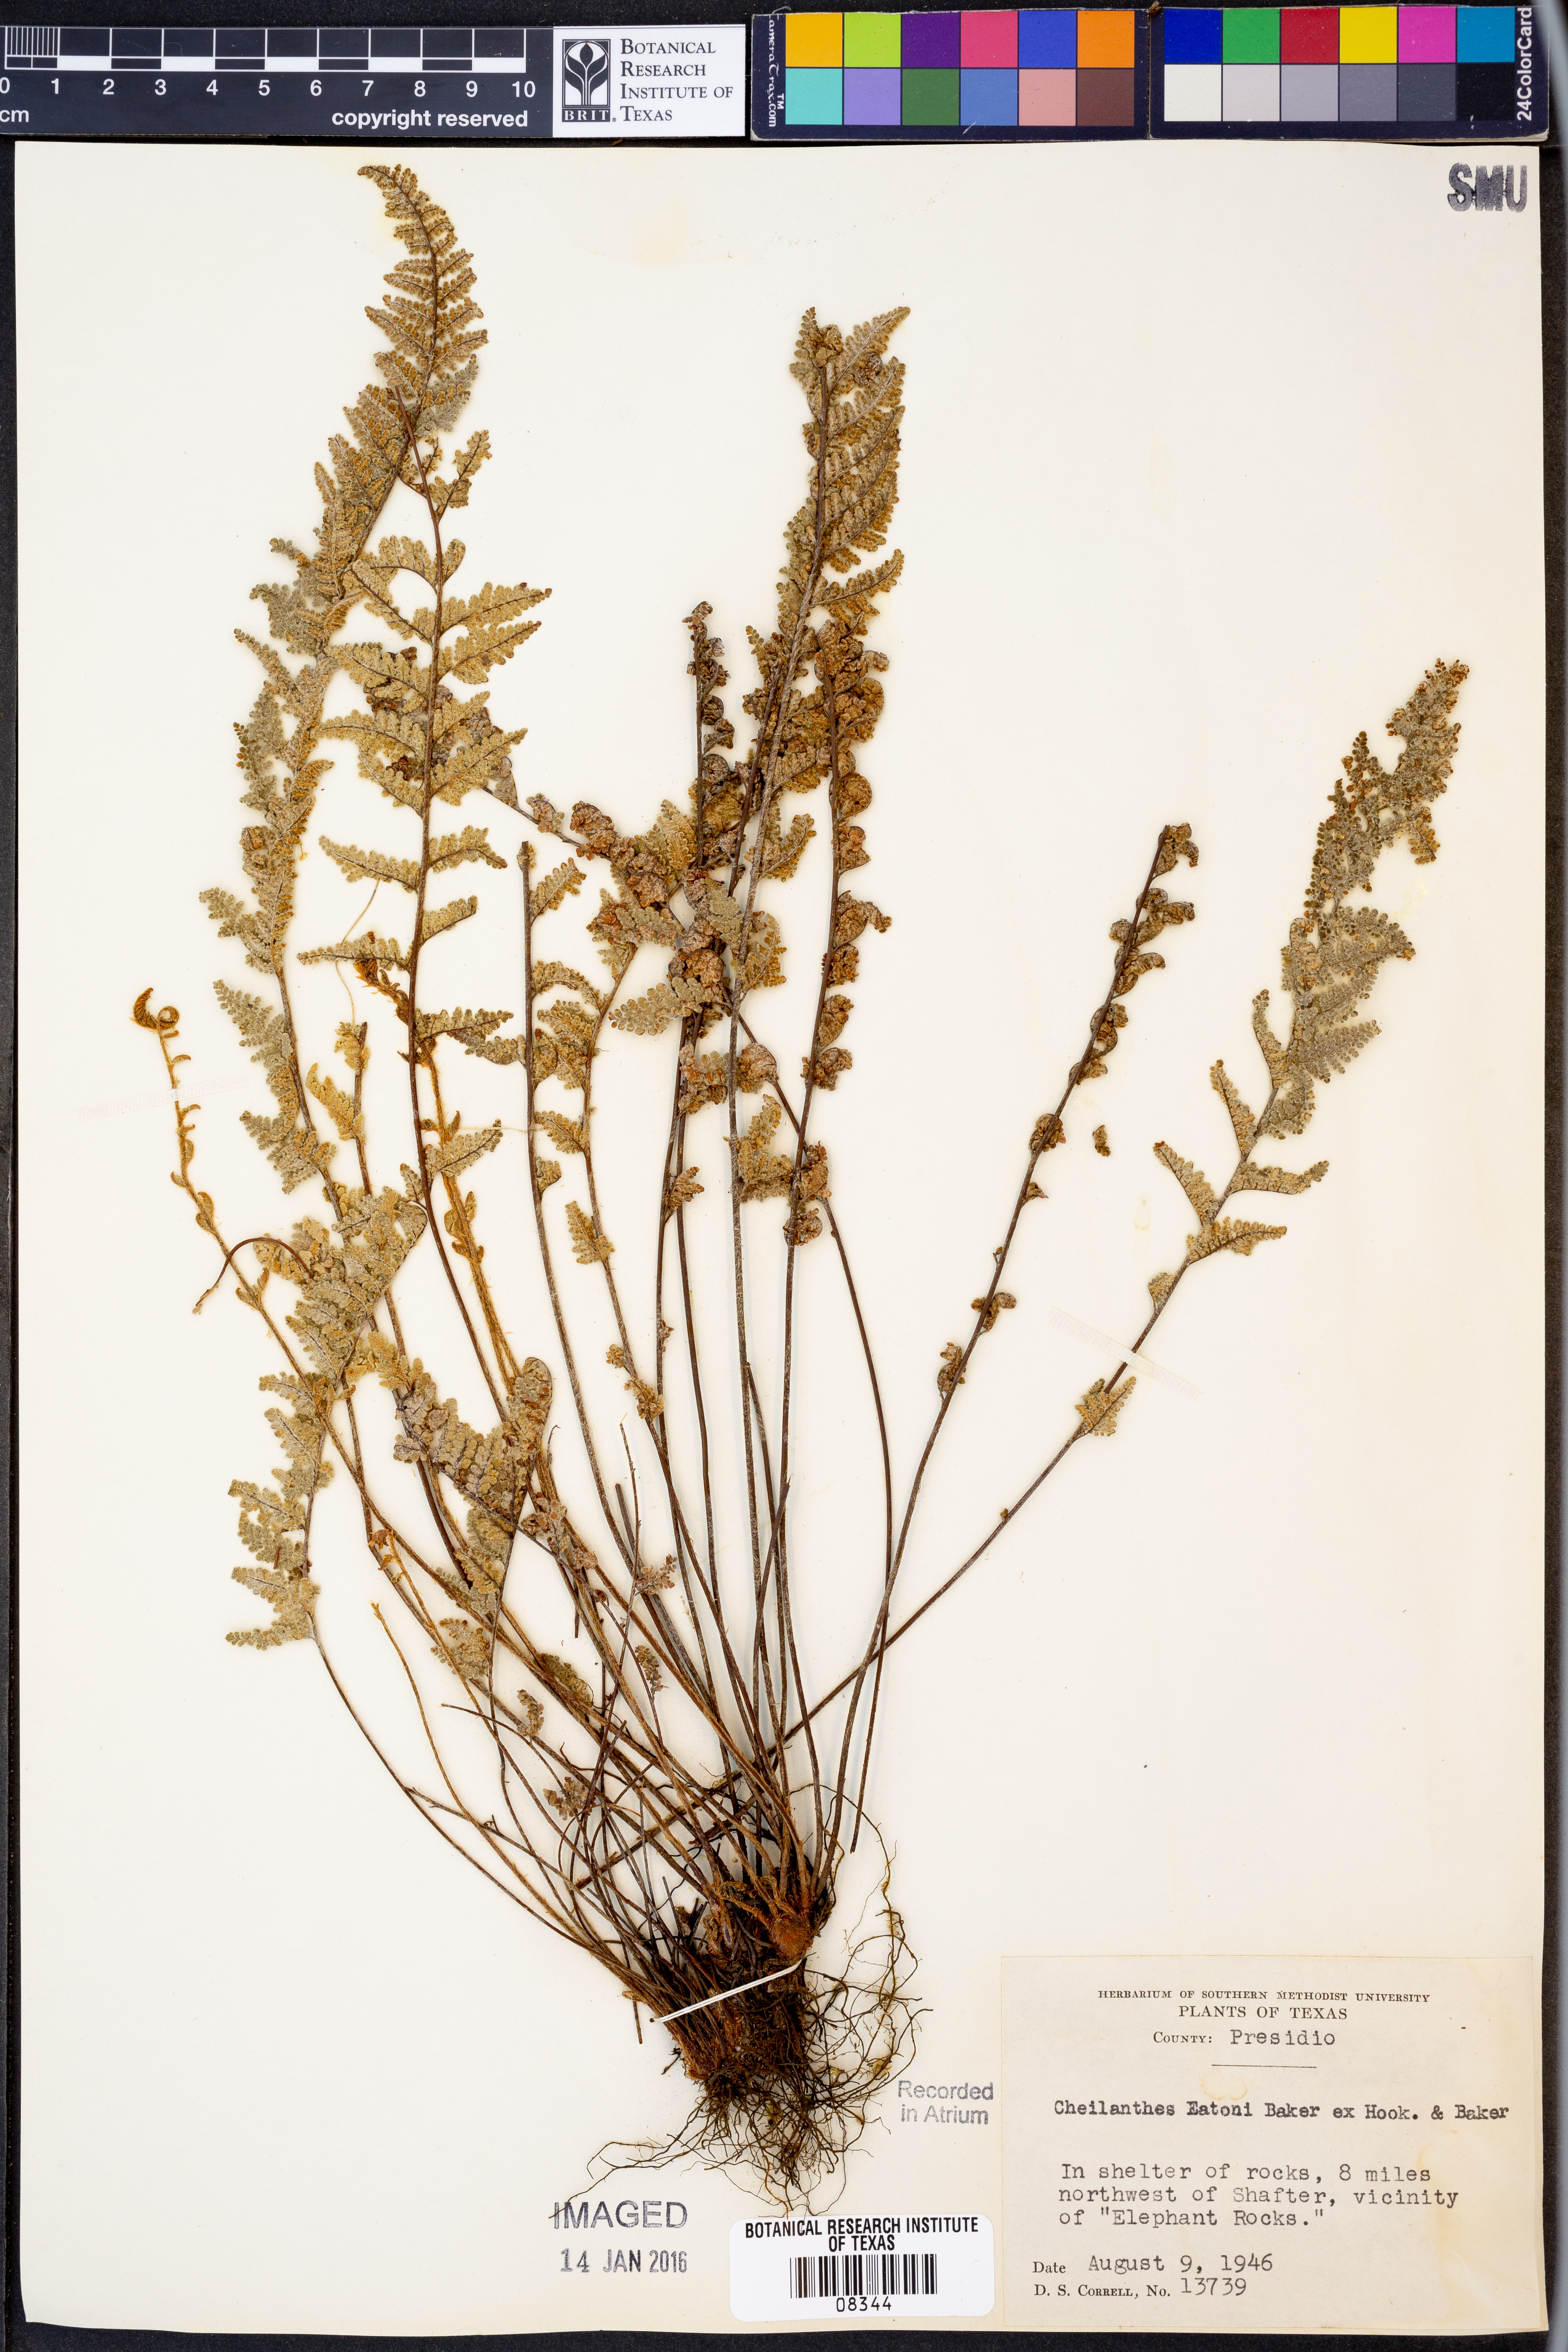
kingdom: Plantae
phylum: Tracheophyta
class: Polypodiopsida
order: Polypodiales
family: Pteridaceae
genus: Myriopteris
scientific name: Myriopteris rufa
